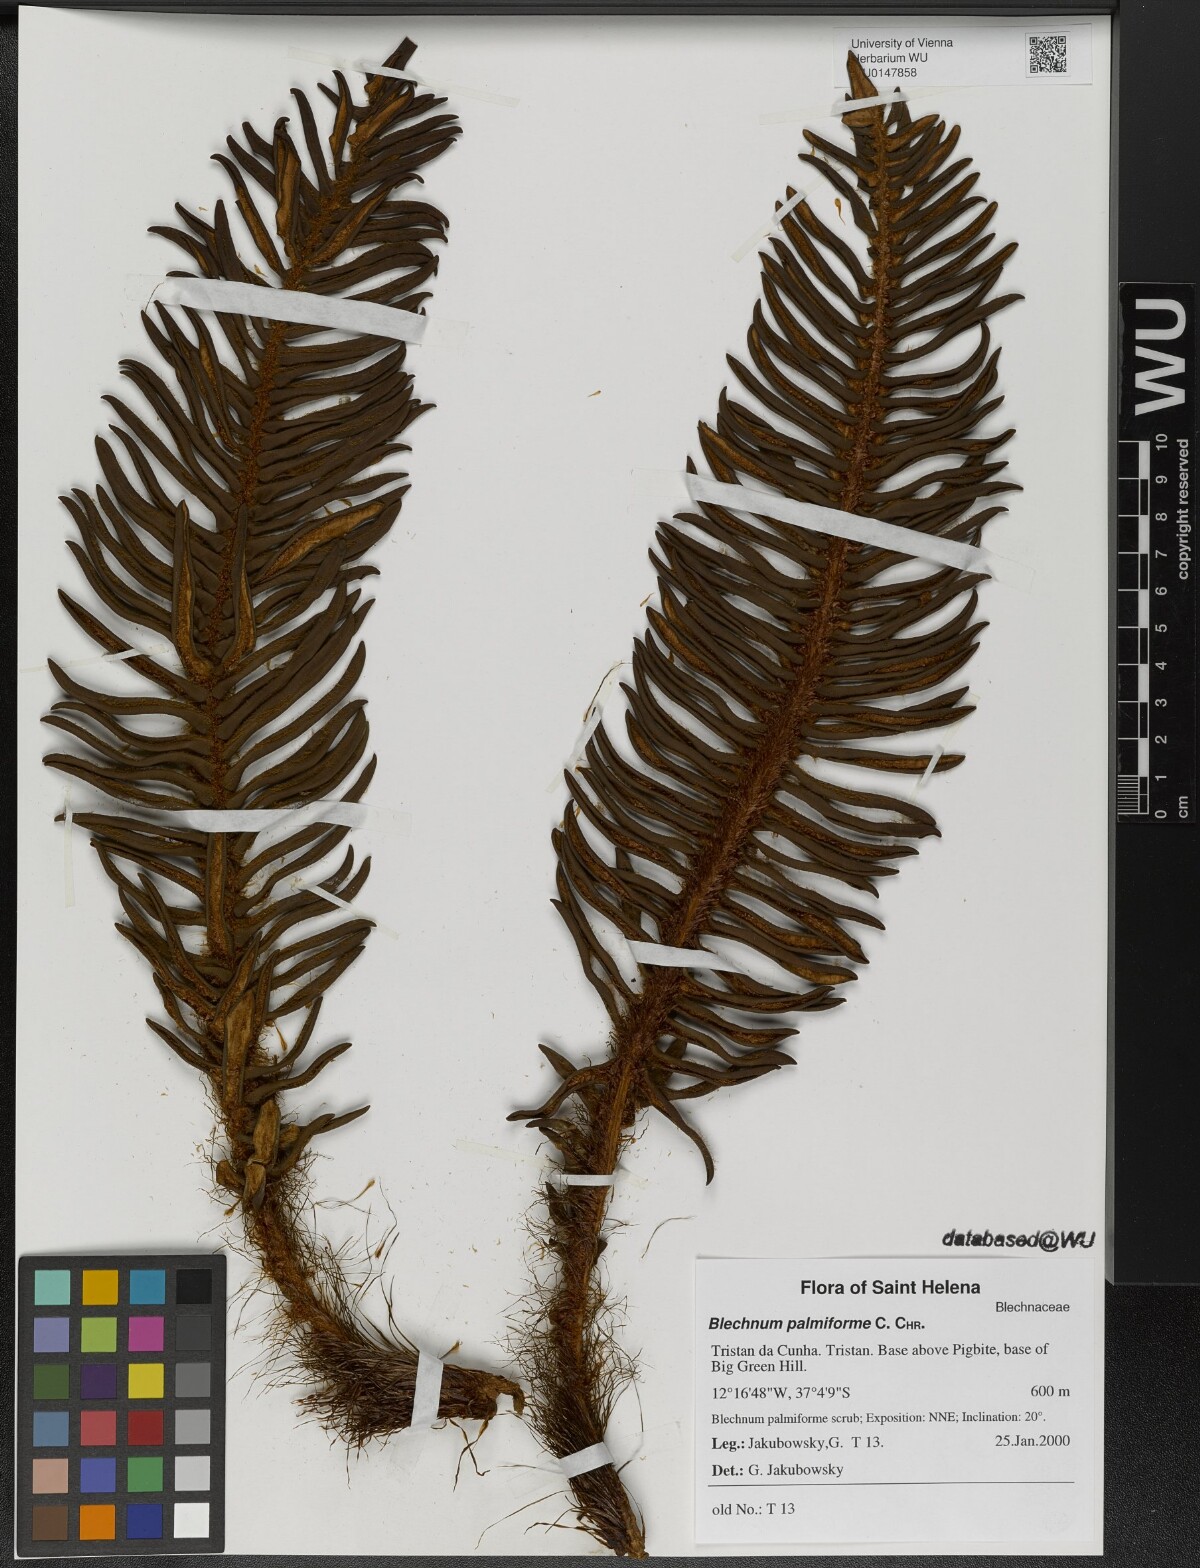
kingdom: Plantae
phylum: Tracheophyta
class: Polypodiopsida
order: Polypodiales
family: Blechnaceae
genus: Lomariocycas
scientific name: Lomariocycas palmiformis
